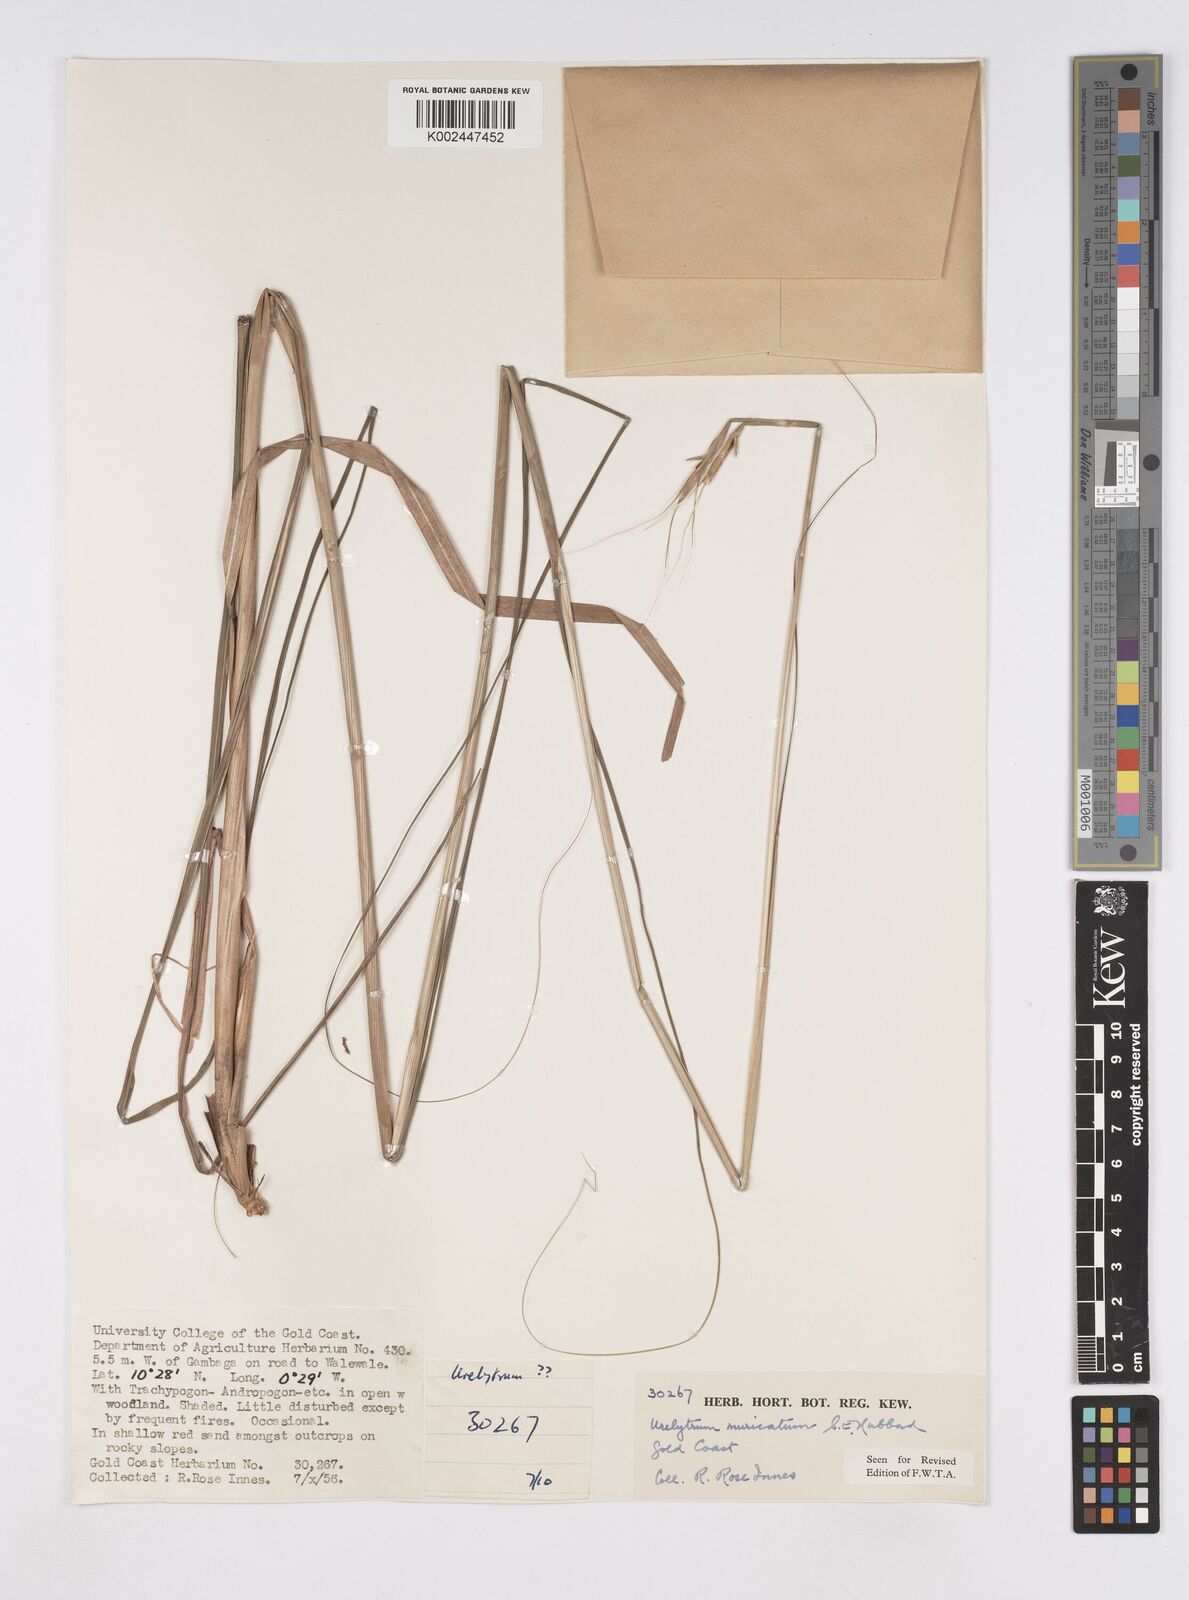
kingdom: Plantae
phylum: Tracheophyta
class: Liliopsida
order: Poales
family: Poaceae
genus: Urelytrum
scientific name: Urelytrum muricatum
